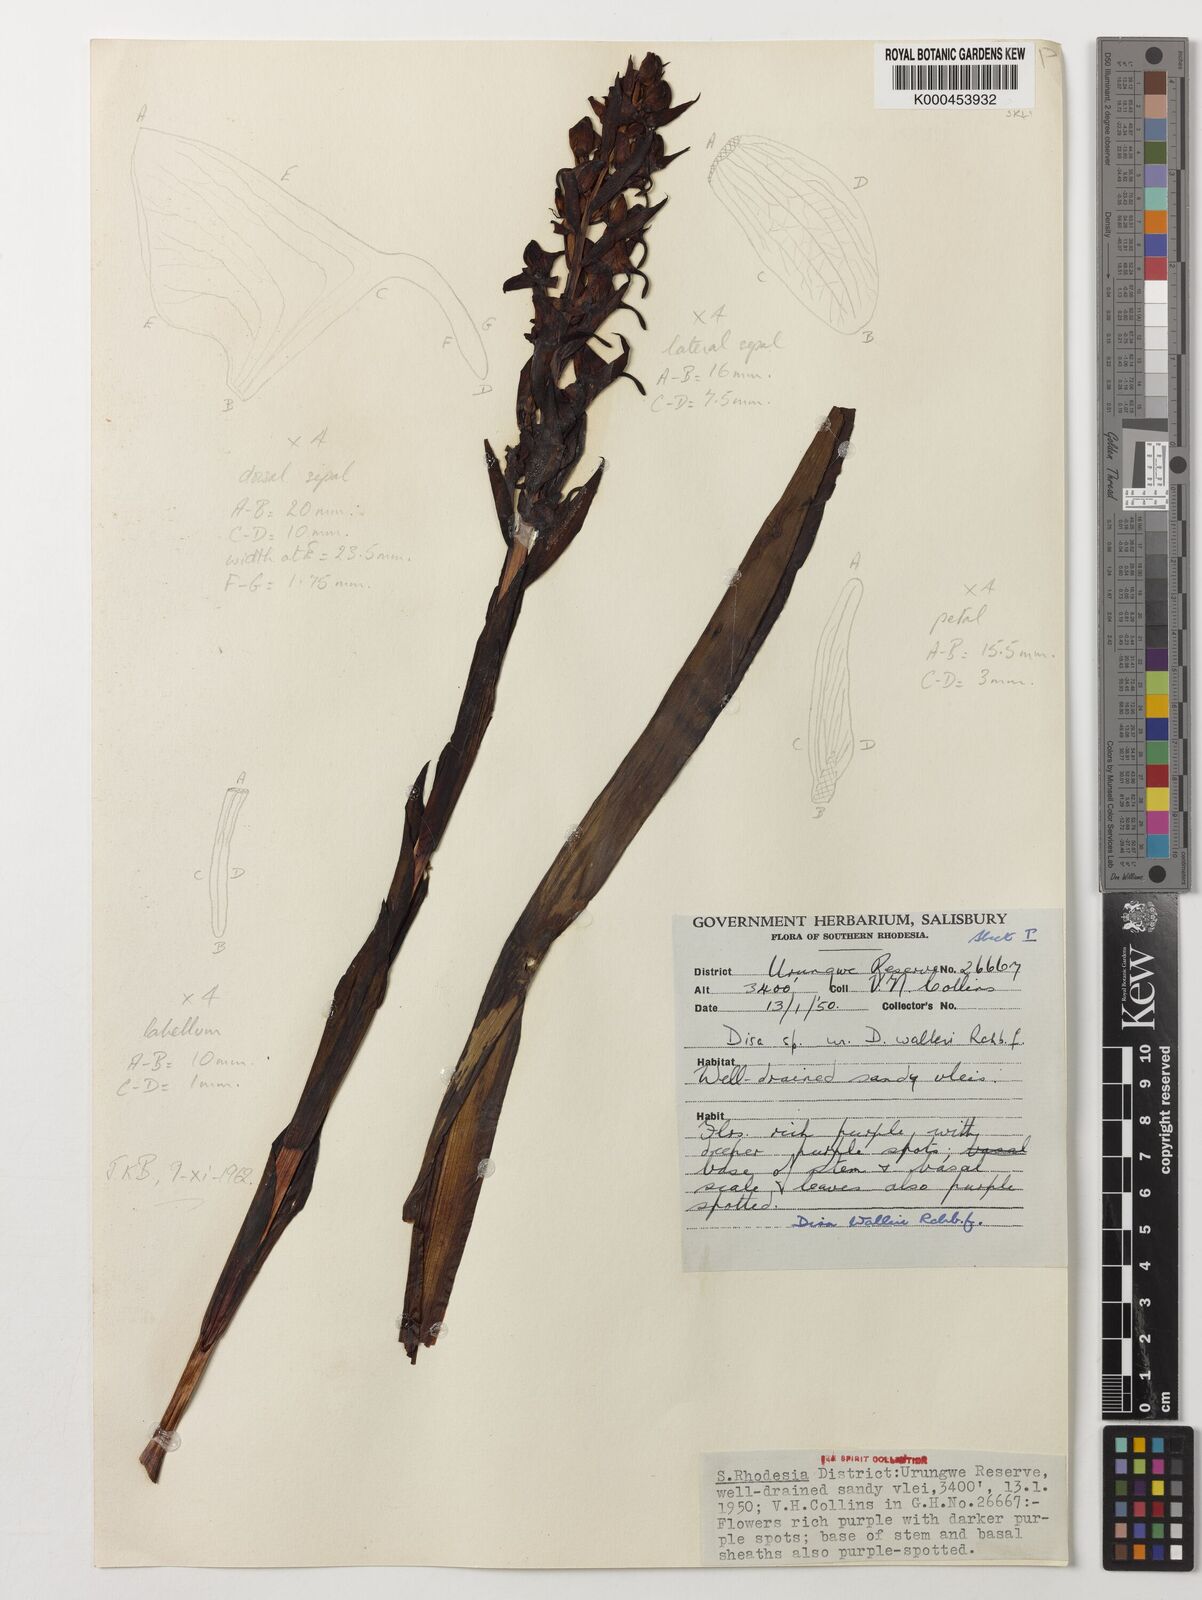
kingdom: Plantae
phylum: Tracheophyta
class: Liliopsida
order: Asparagales
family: Orchidaceae
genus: Disa
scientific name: Disa walleri
